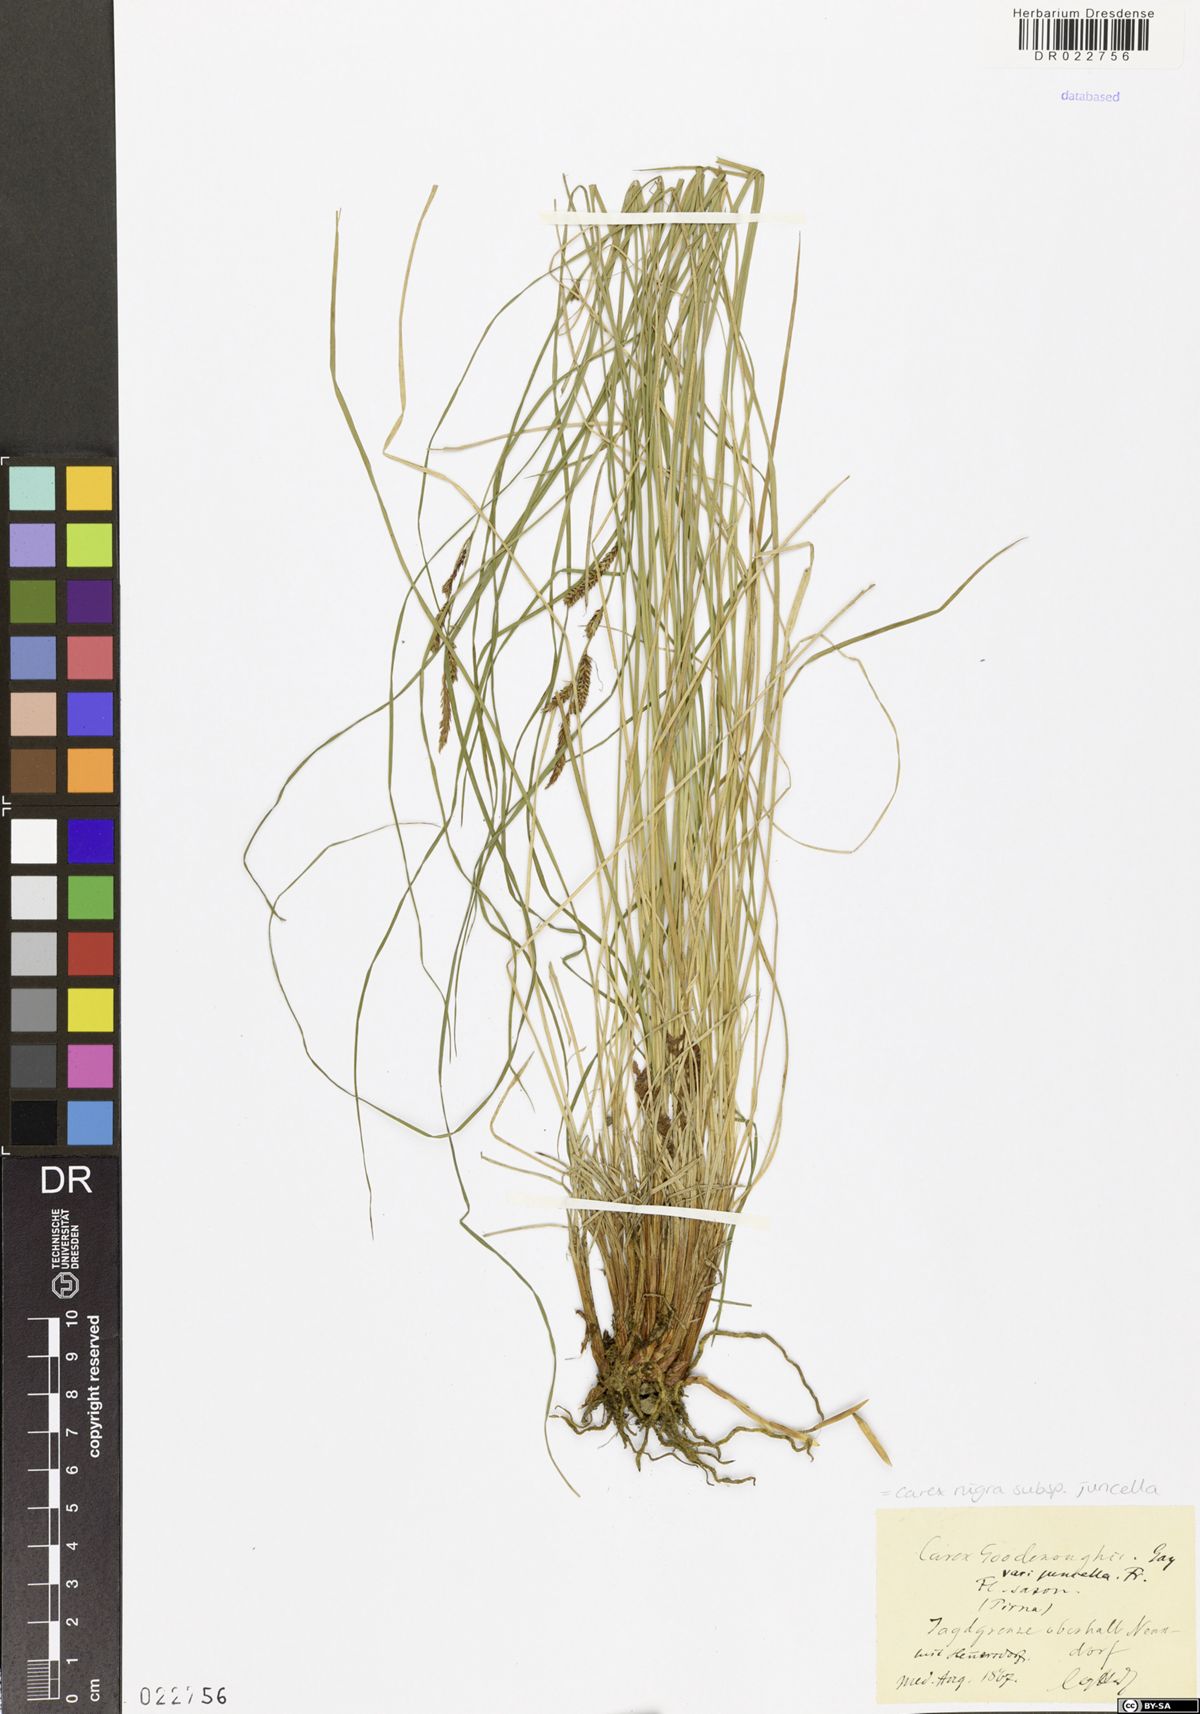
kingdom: Plantae
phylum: Tracheophyta
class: Liliopsida
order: Poales
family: Cyperaceae
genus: Carex
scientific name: Carex nigra
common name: Common sedge
